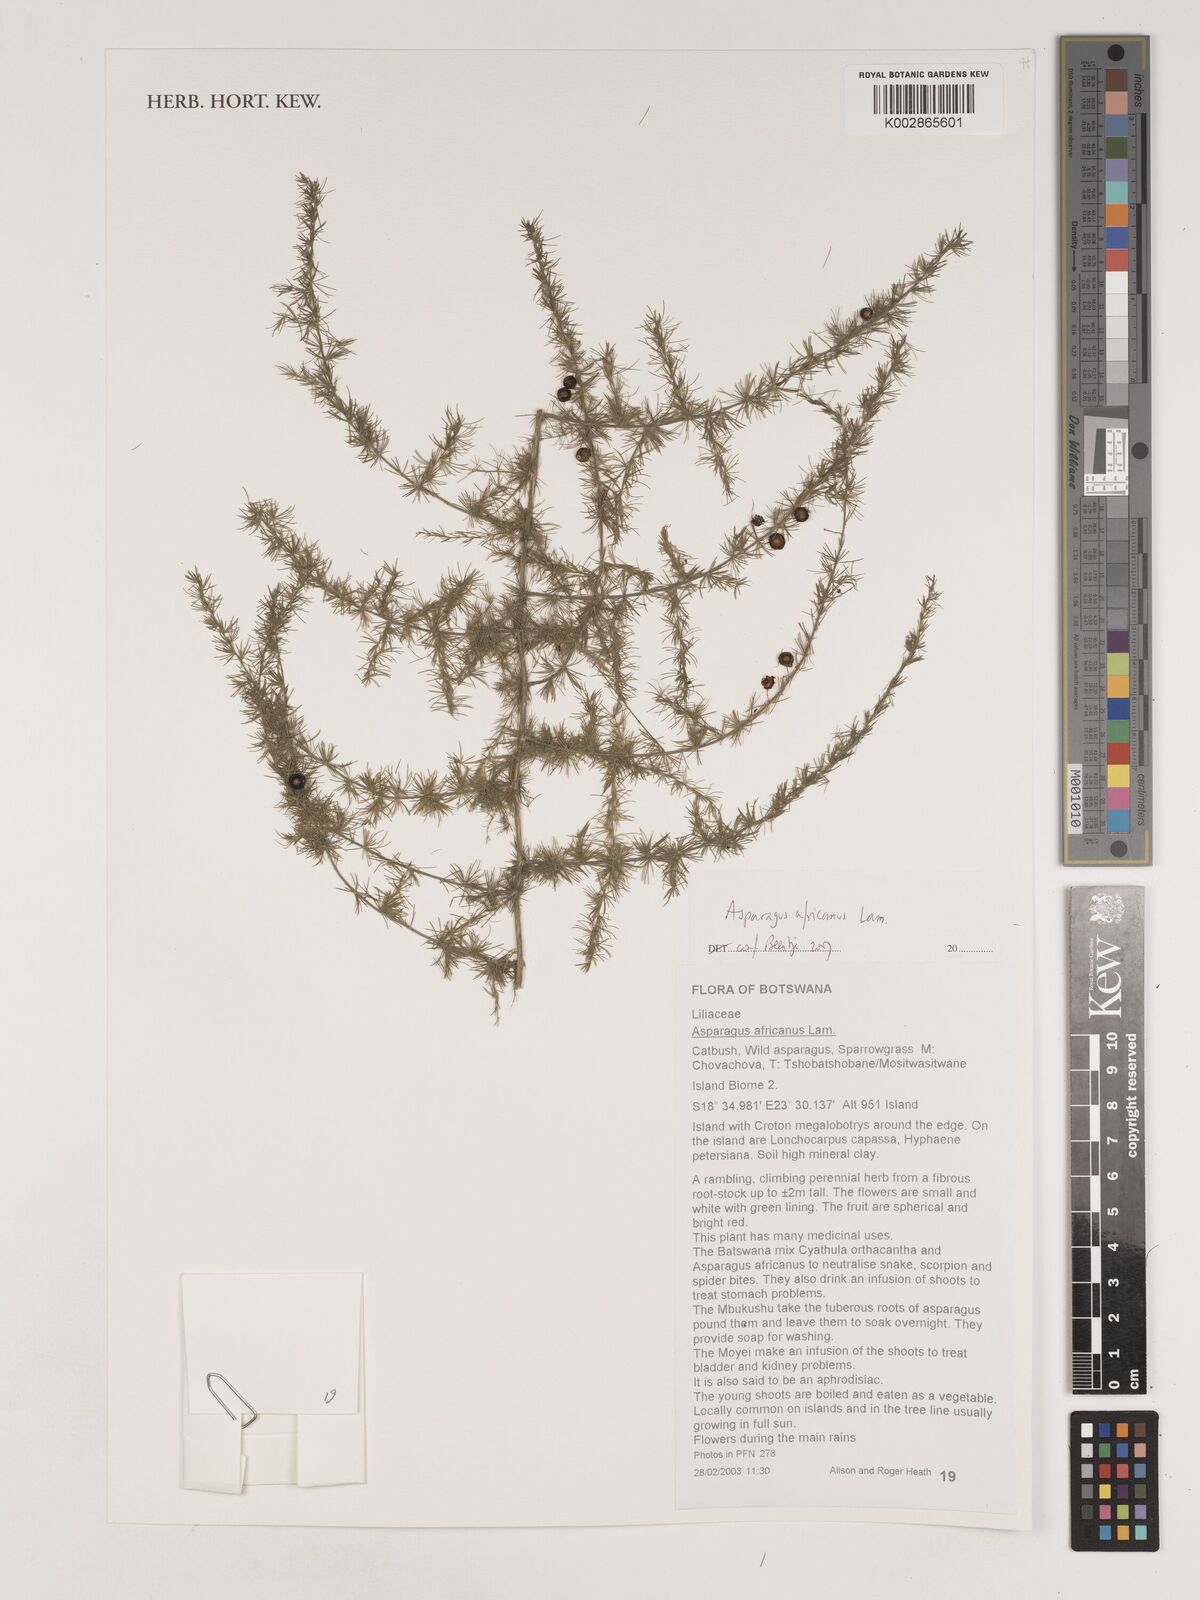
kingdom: Plantae
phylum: Tracheophyta
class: Liliopsida
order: Asparagales
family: Asparagaceae
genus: Asparagus
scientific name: Asparagus africanus
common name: Asparagus-fern
